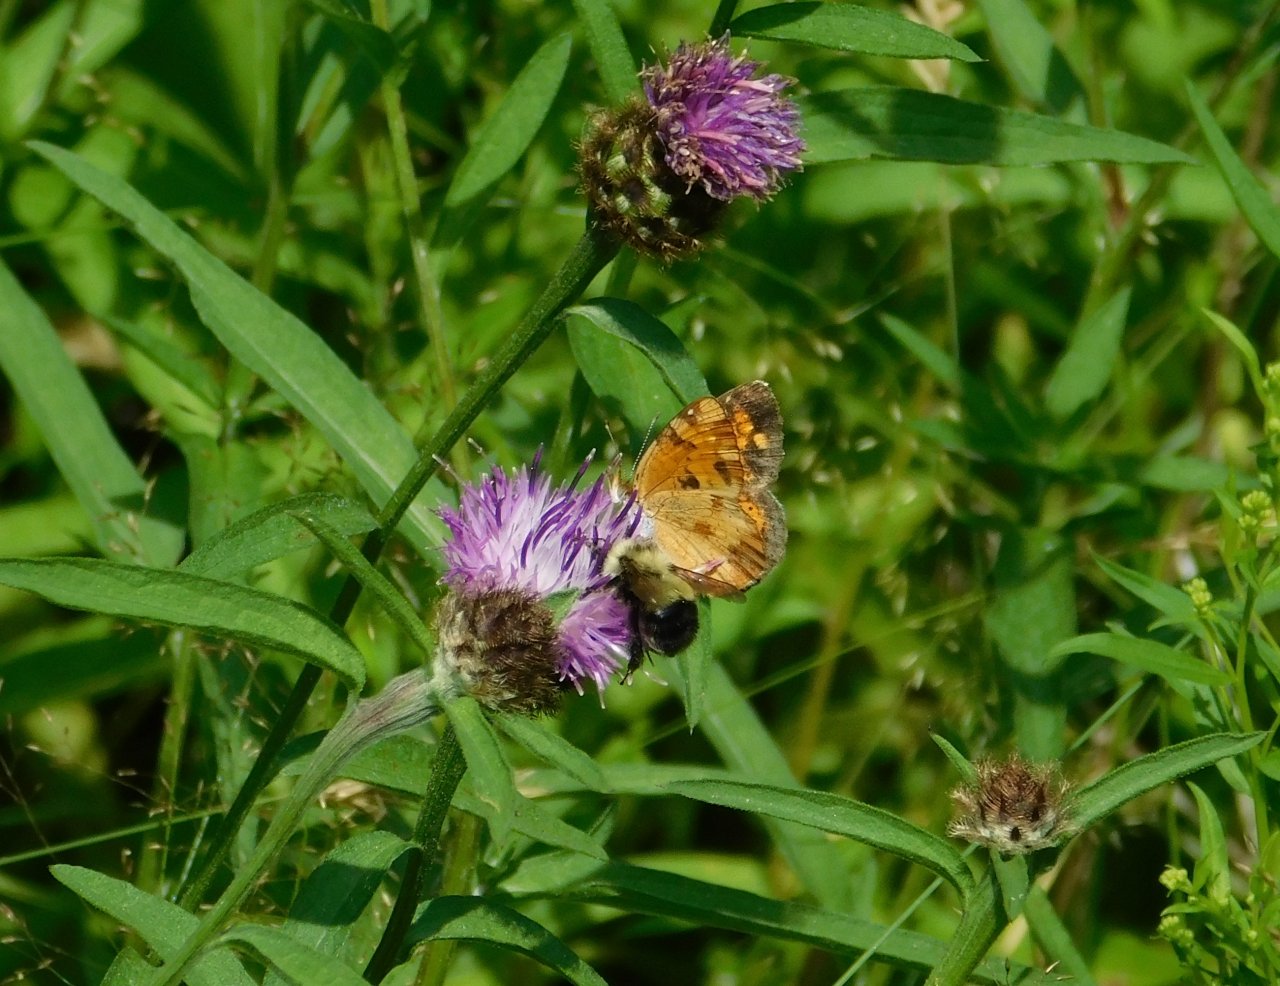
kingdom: Animalia
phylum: Arthropoda
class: Insecta
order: Lepidoptera
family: Nymphalidae
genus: Phyciodes
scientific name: Phyciodes tharos
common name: Northern Crescent
